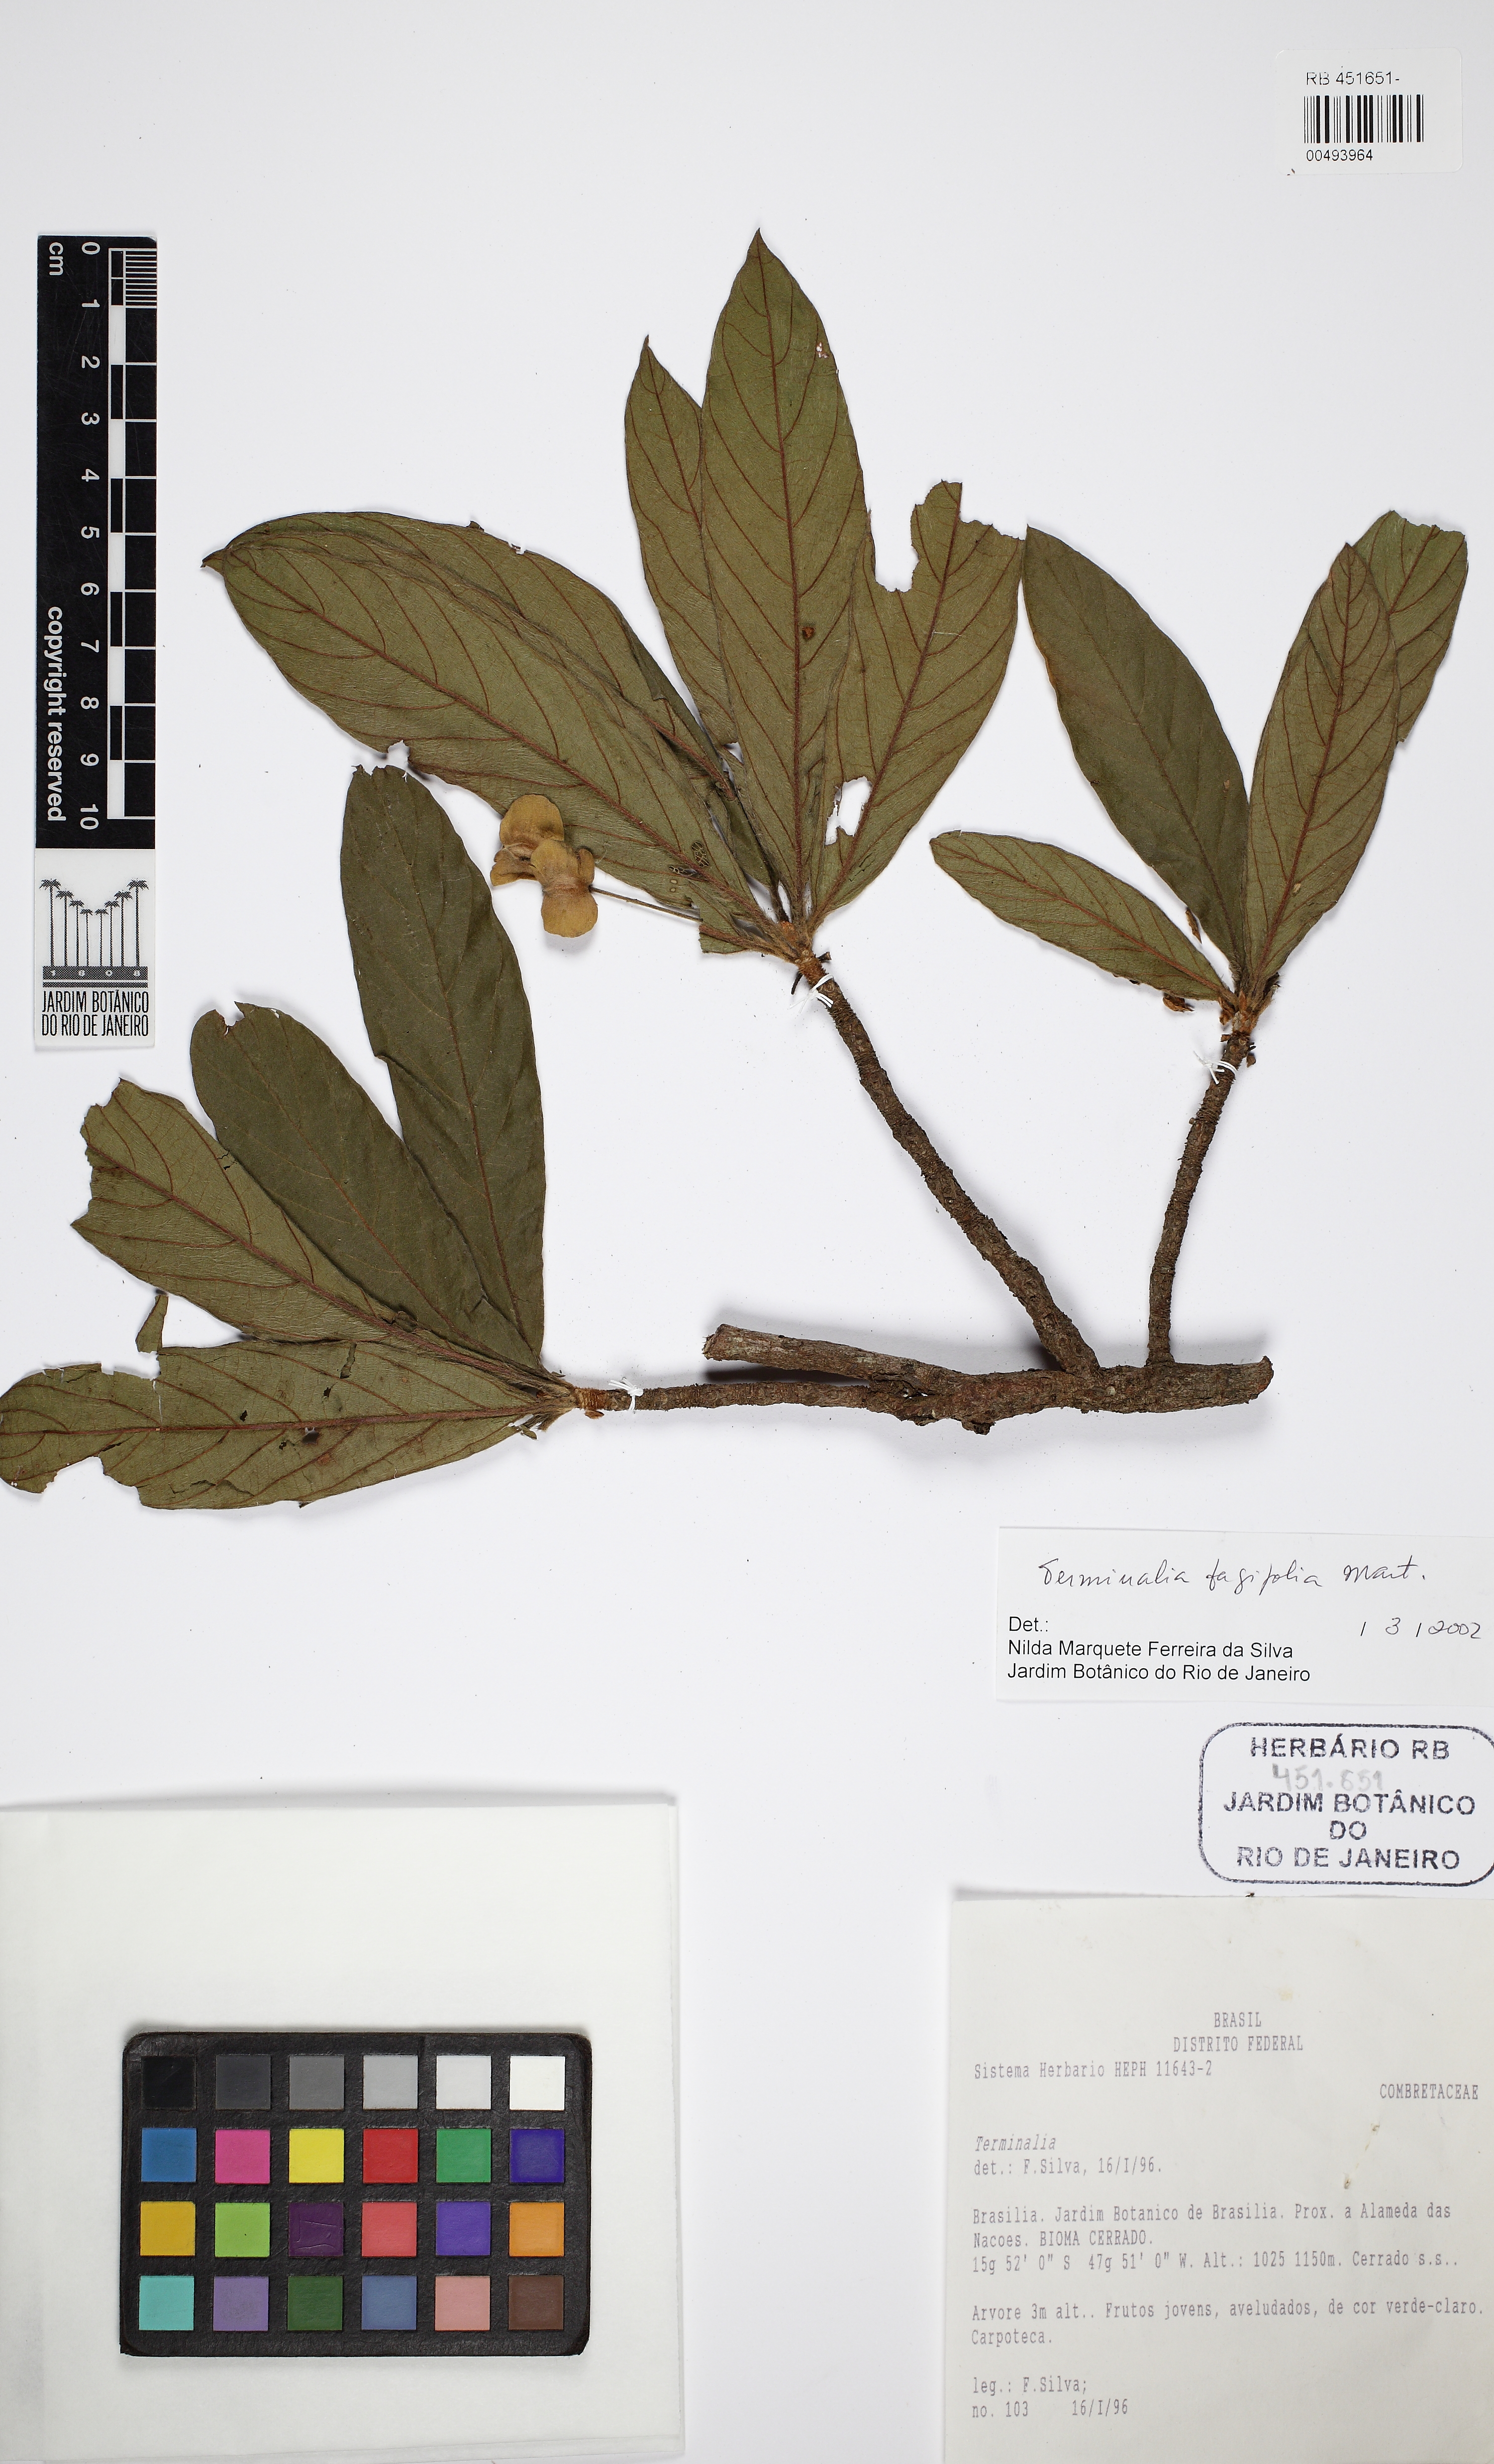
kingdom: Plantae
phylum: Tracheophyta
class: Magnoliopsida
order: Myrtales
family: Combretaceae
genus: Terminalia
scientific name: Terminalia fagifolia
